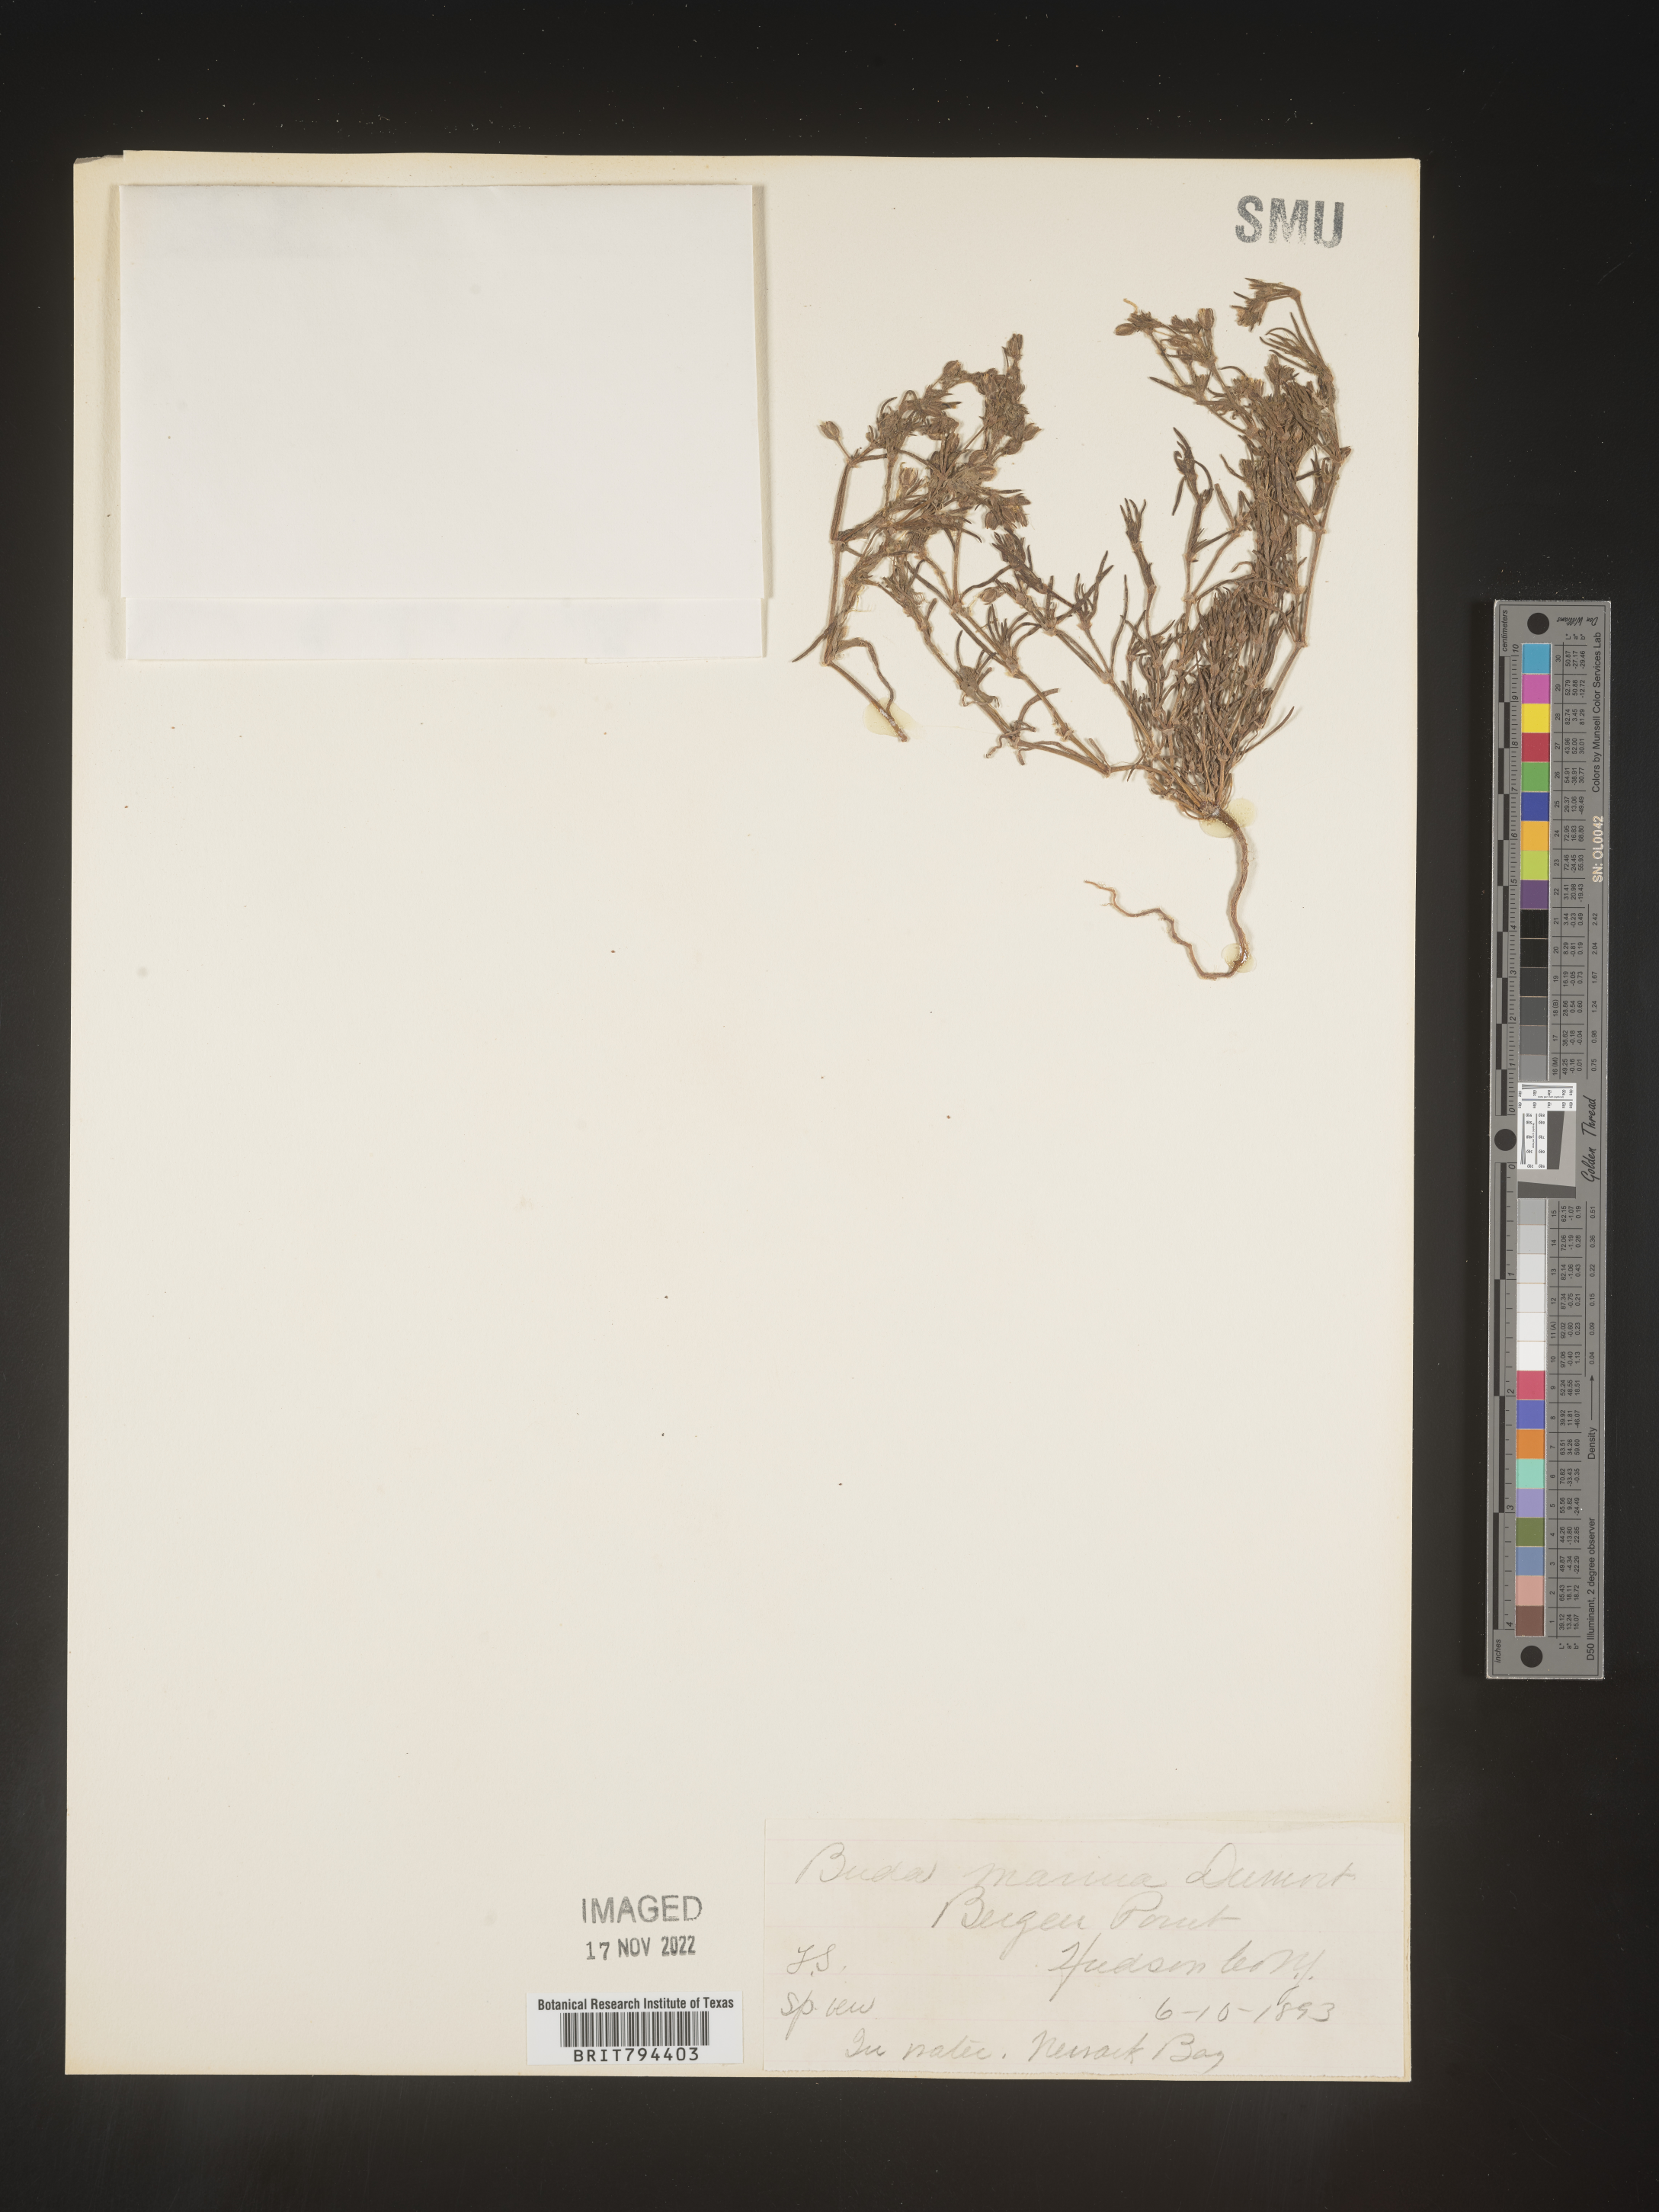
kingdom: Plantae
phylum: Tracheophyta
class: Magnoliopsida
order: Caryophyllales
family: Caryophyllaceae
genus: Spergularia
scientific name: Spergularia marina
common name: Lesser sea-spurrey
